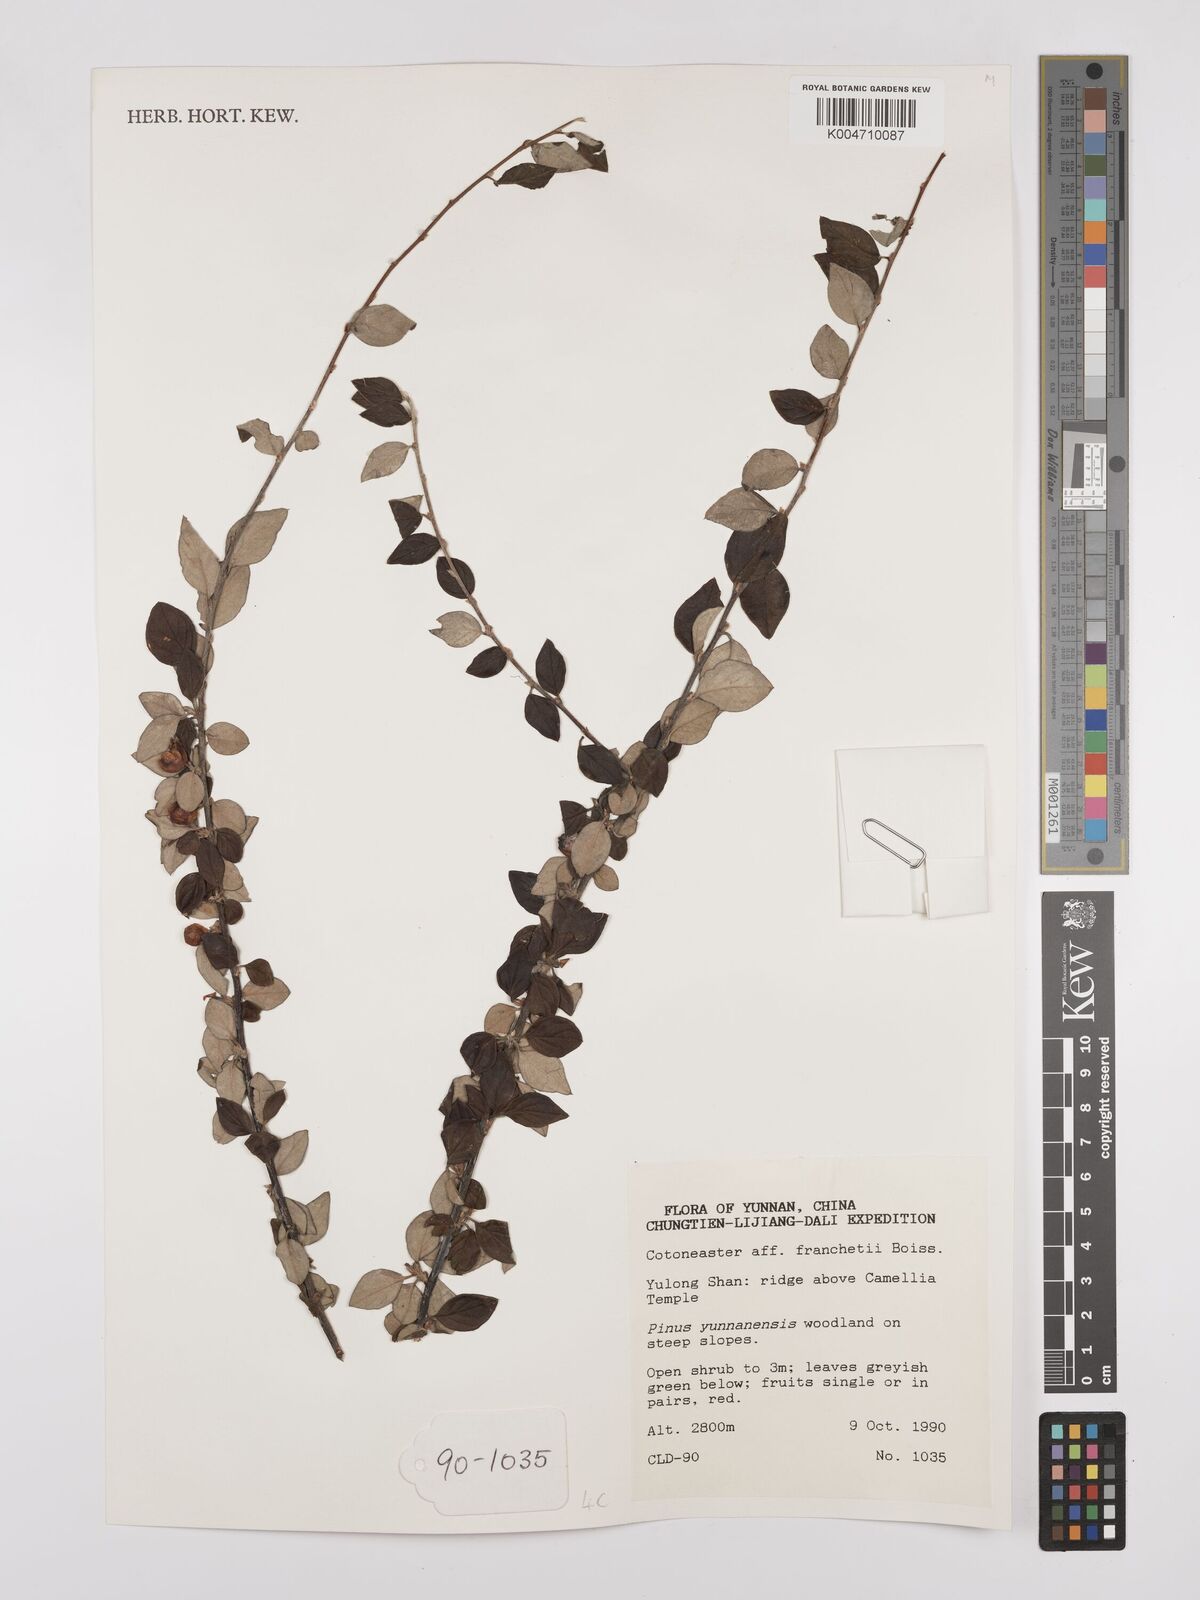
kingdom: Plantae
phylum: Tracheophyta
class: Magnoliopsida
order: Rosales
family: Rosaceae
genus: Cotoneaster
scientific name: Cotoneaster sylvestrii
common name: Rose
